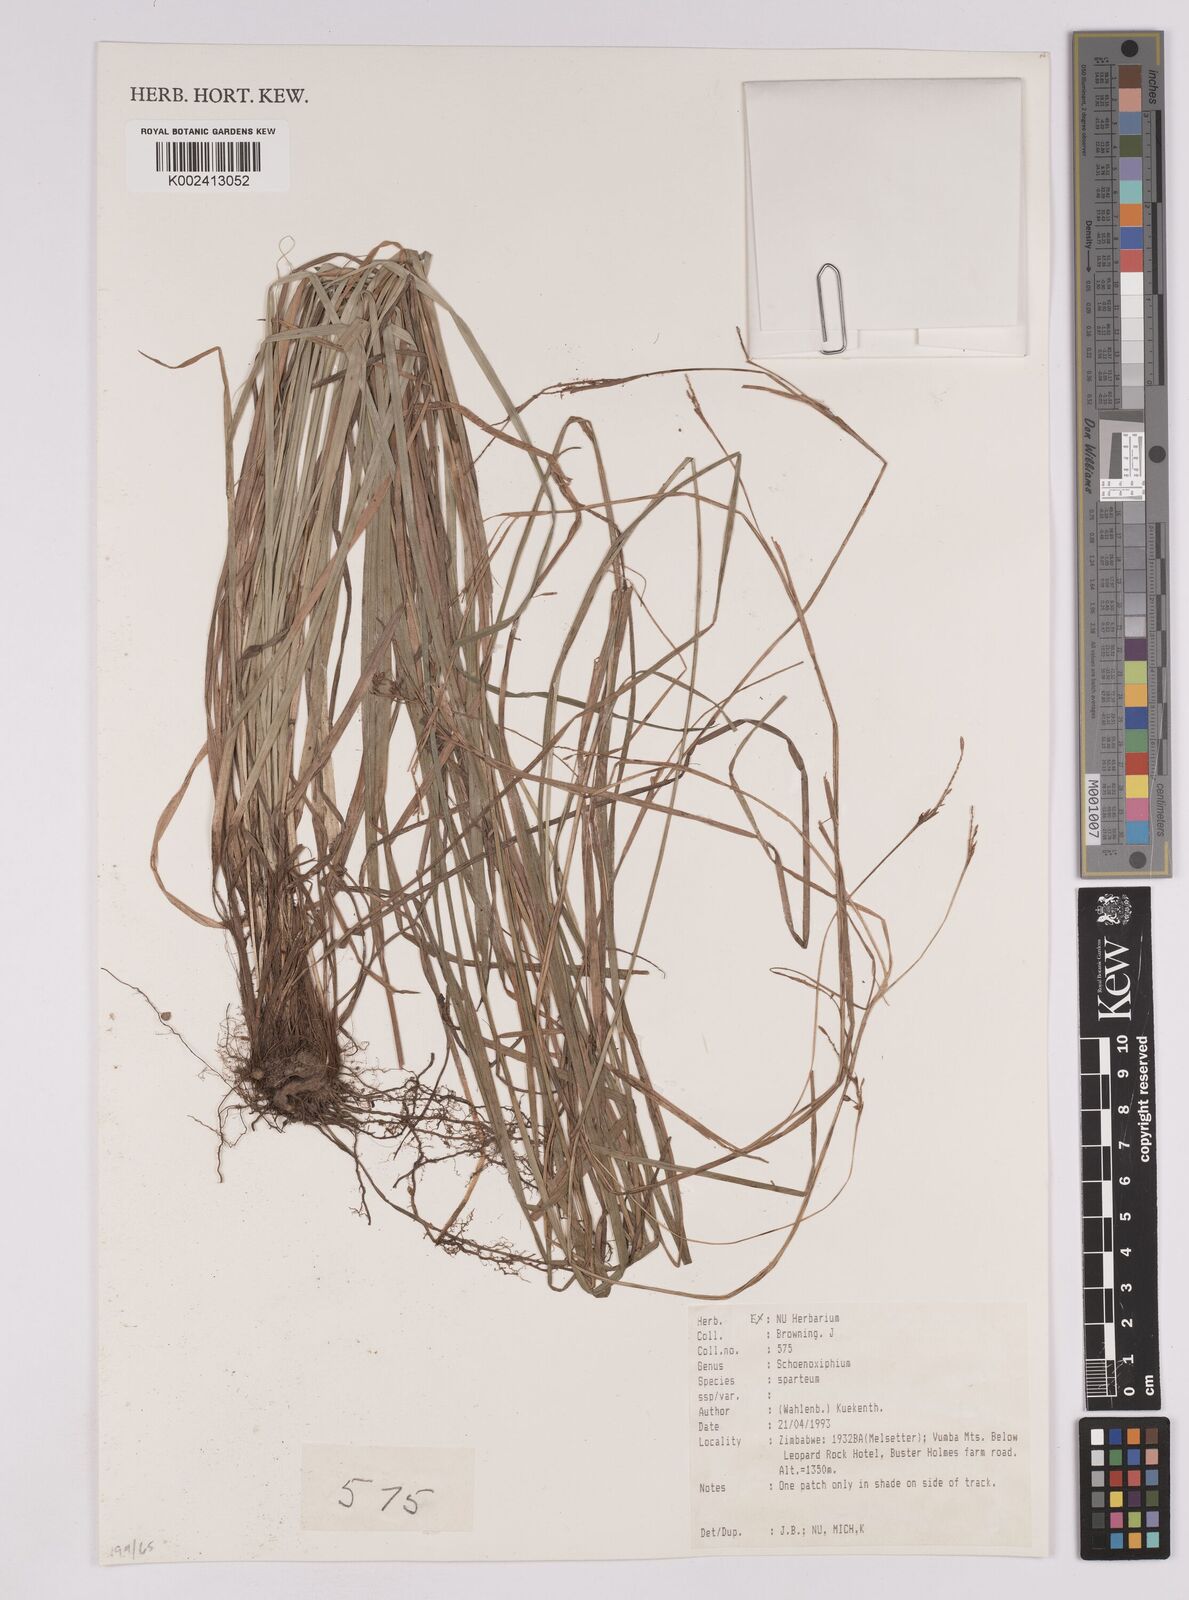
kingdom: Plantae
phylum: Tracheophyta
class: Liliopsida
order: Poales
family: Cyperaceae
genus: Carex
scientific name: Carex spartea
